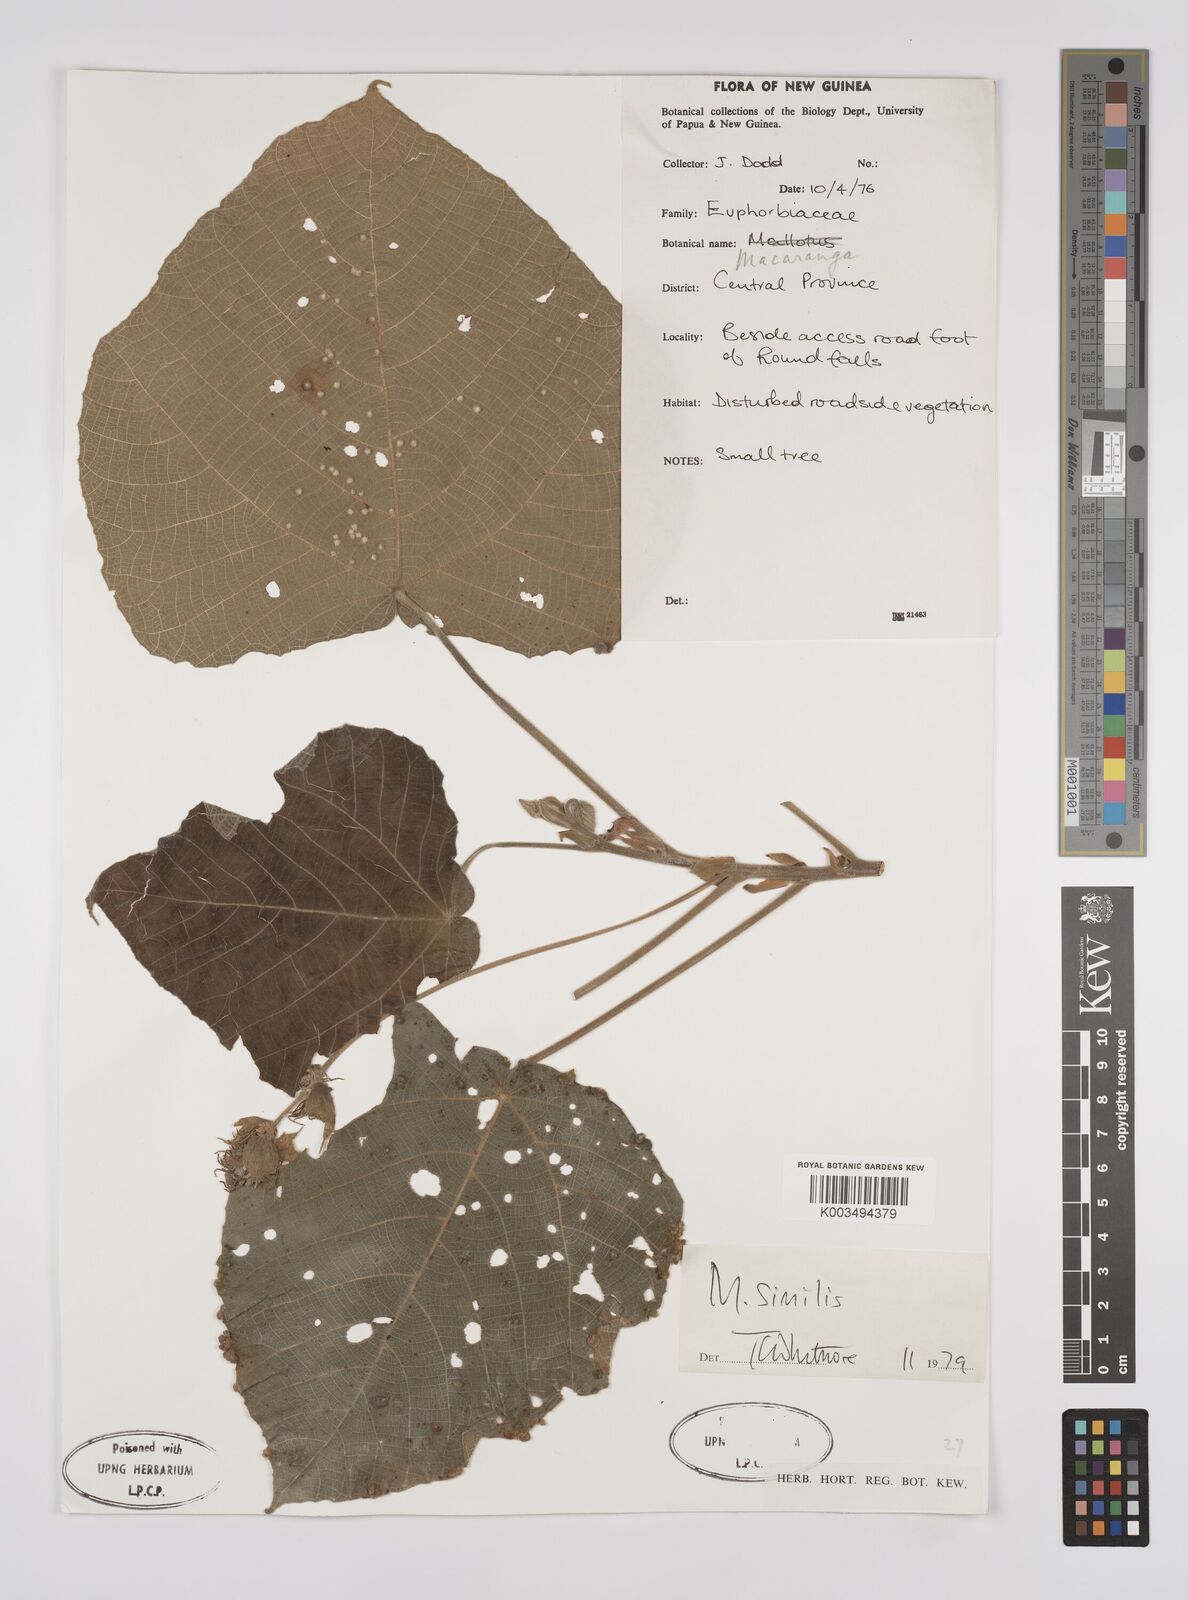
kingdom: Plantae
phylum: Tracheophyta
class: Magnoliopsida
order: Malpighiales
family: Euphorbiaceae
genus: Macaranga
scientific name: Macaranga similis
